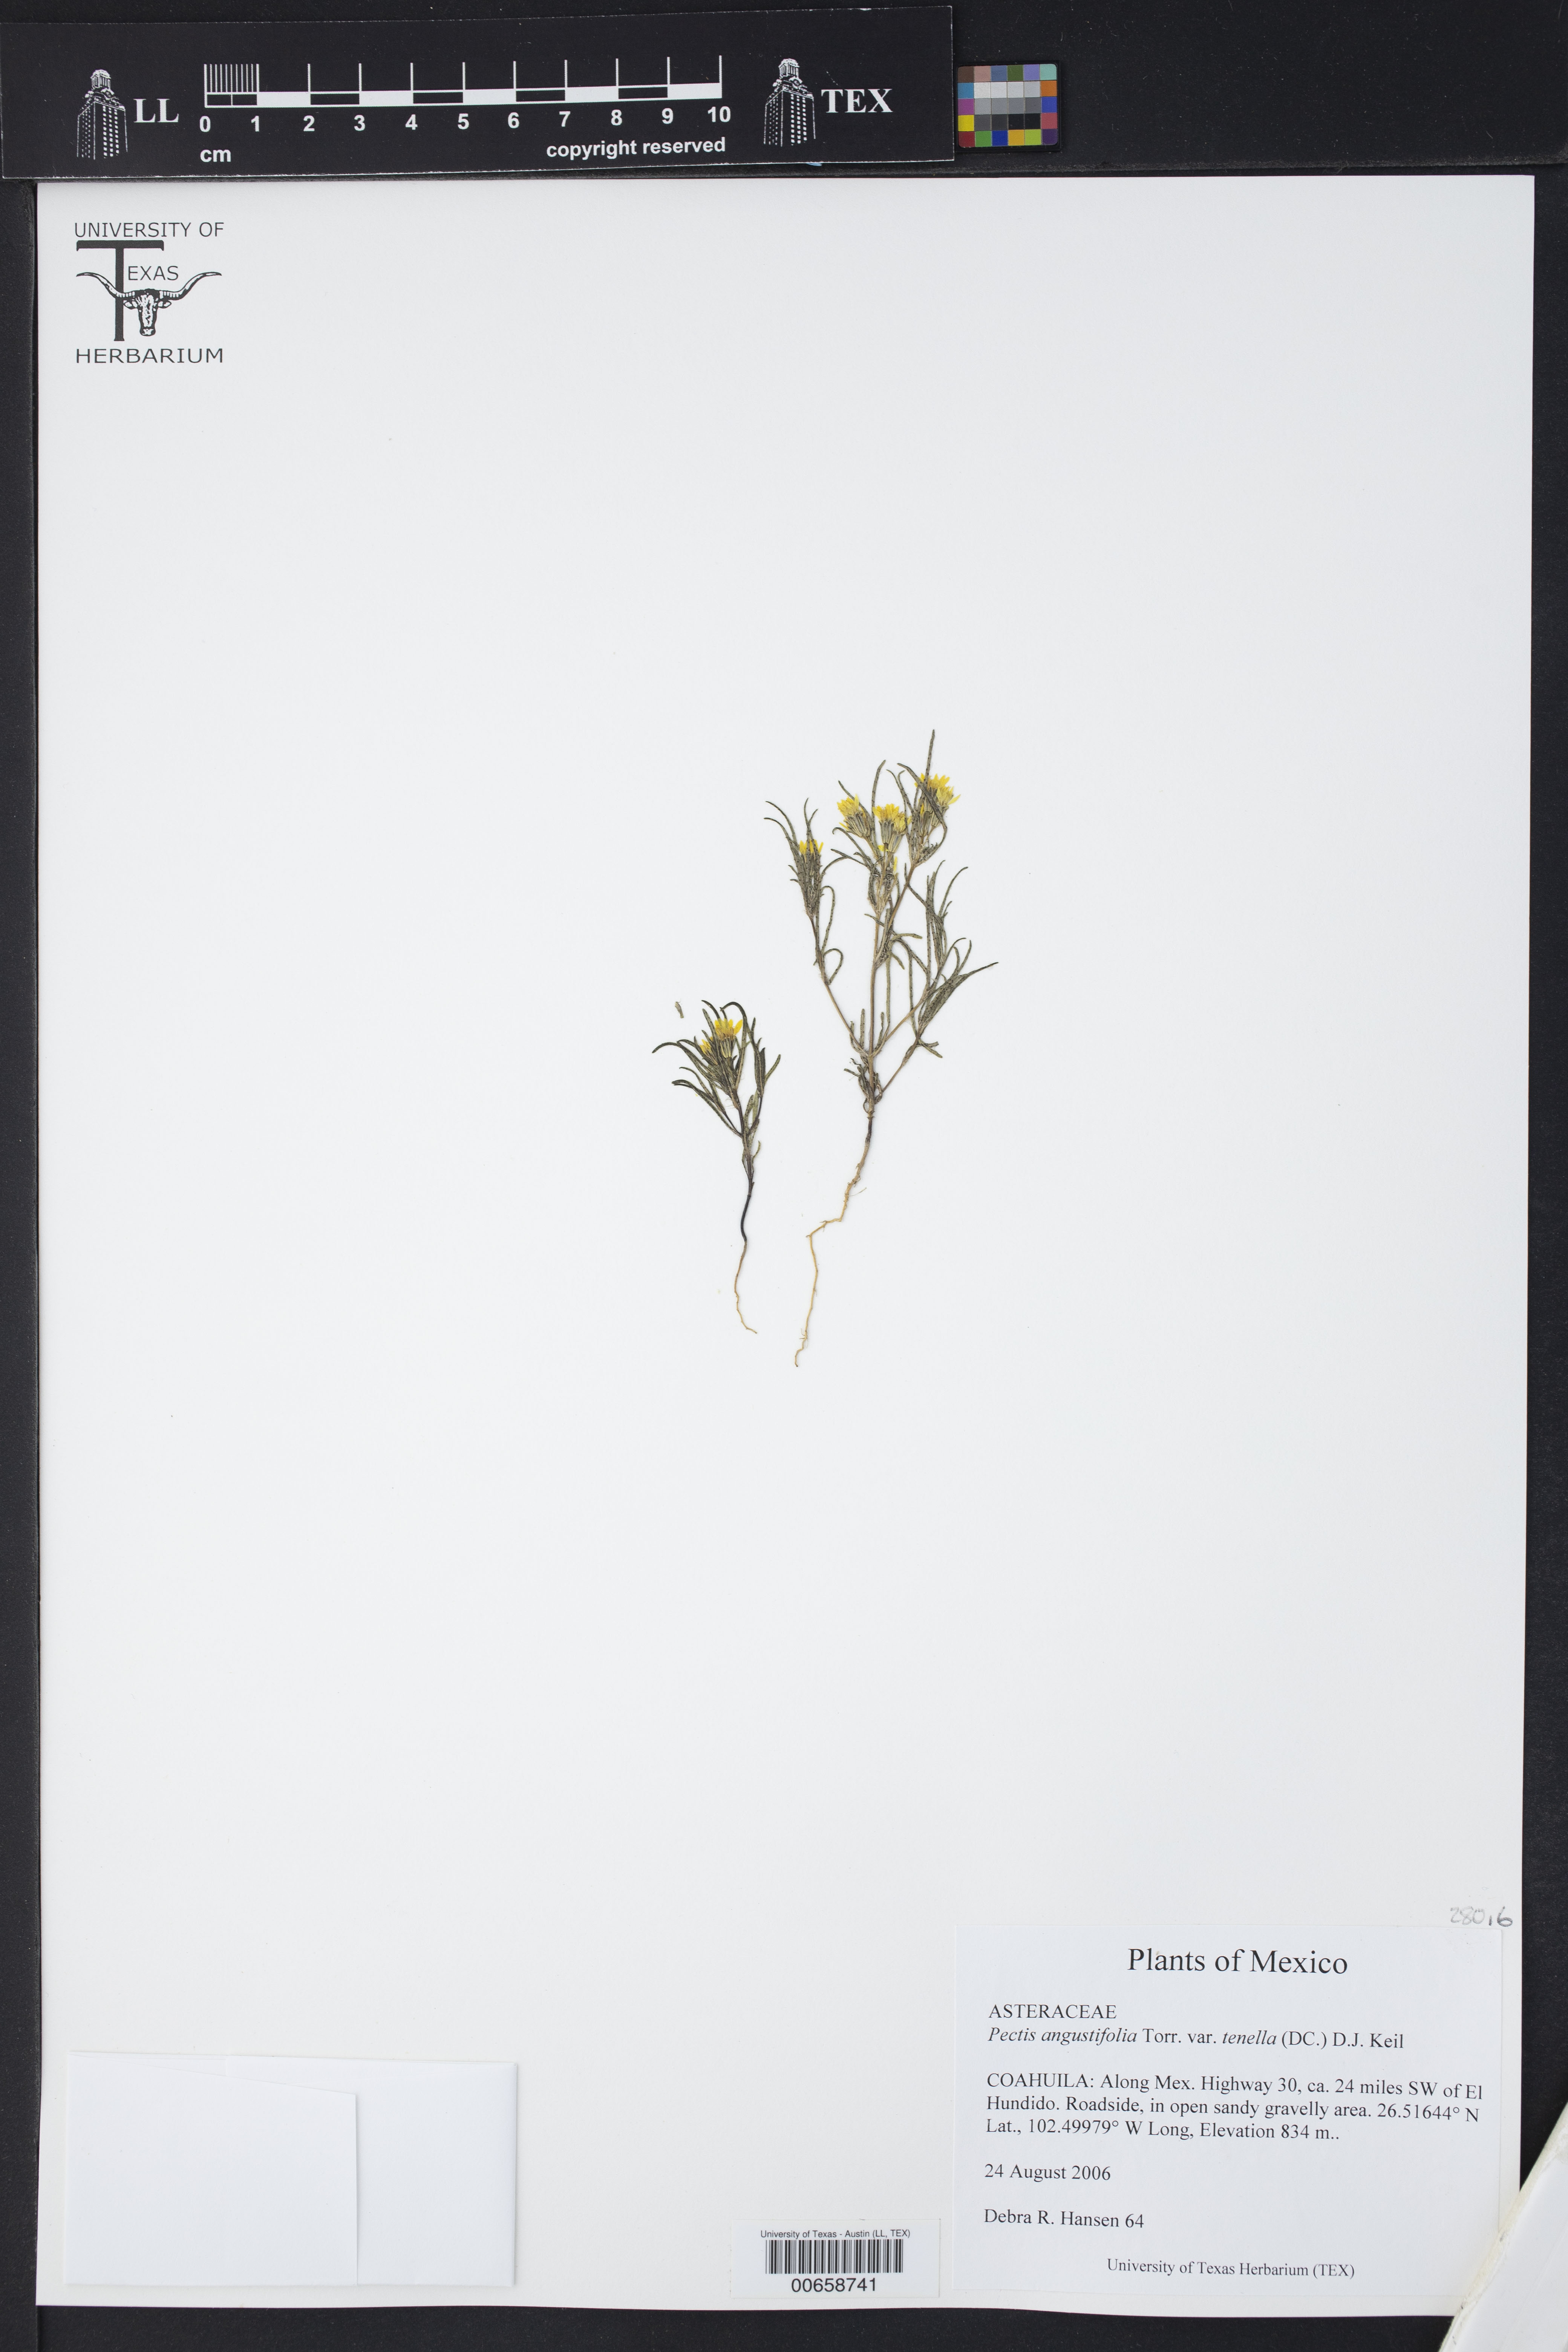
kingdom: Plantae
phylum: Tracheophyta
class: Magnoliopsida
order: Asterales
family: Asteraceae
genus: Pectis
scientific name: Pectis angustifolia
